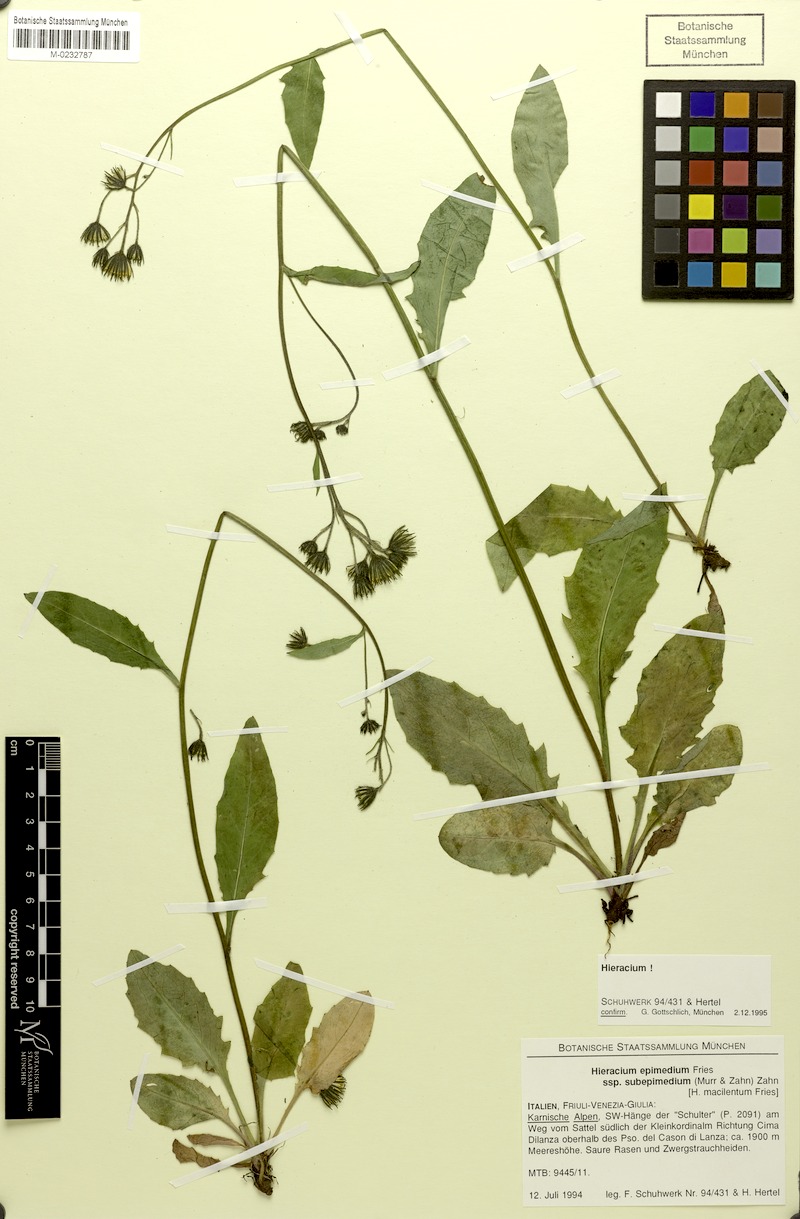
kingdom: Plantae
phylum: Tracheophyta
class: Magnoliopsida
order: Asterales
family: Asteraceae
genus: Hieracium
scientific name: Hieracium froelichianum
